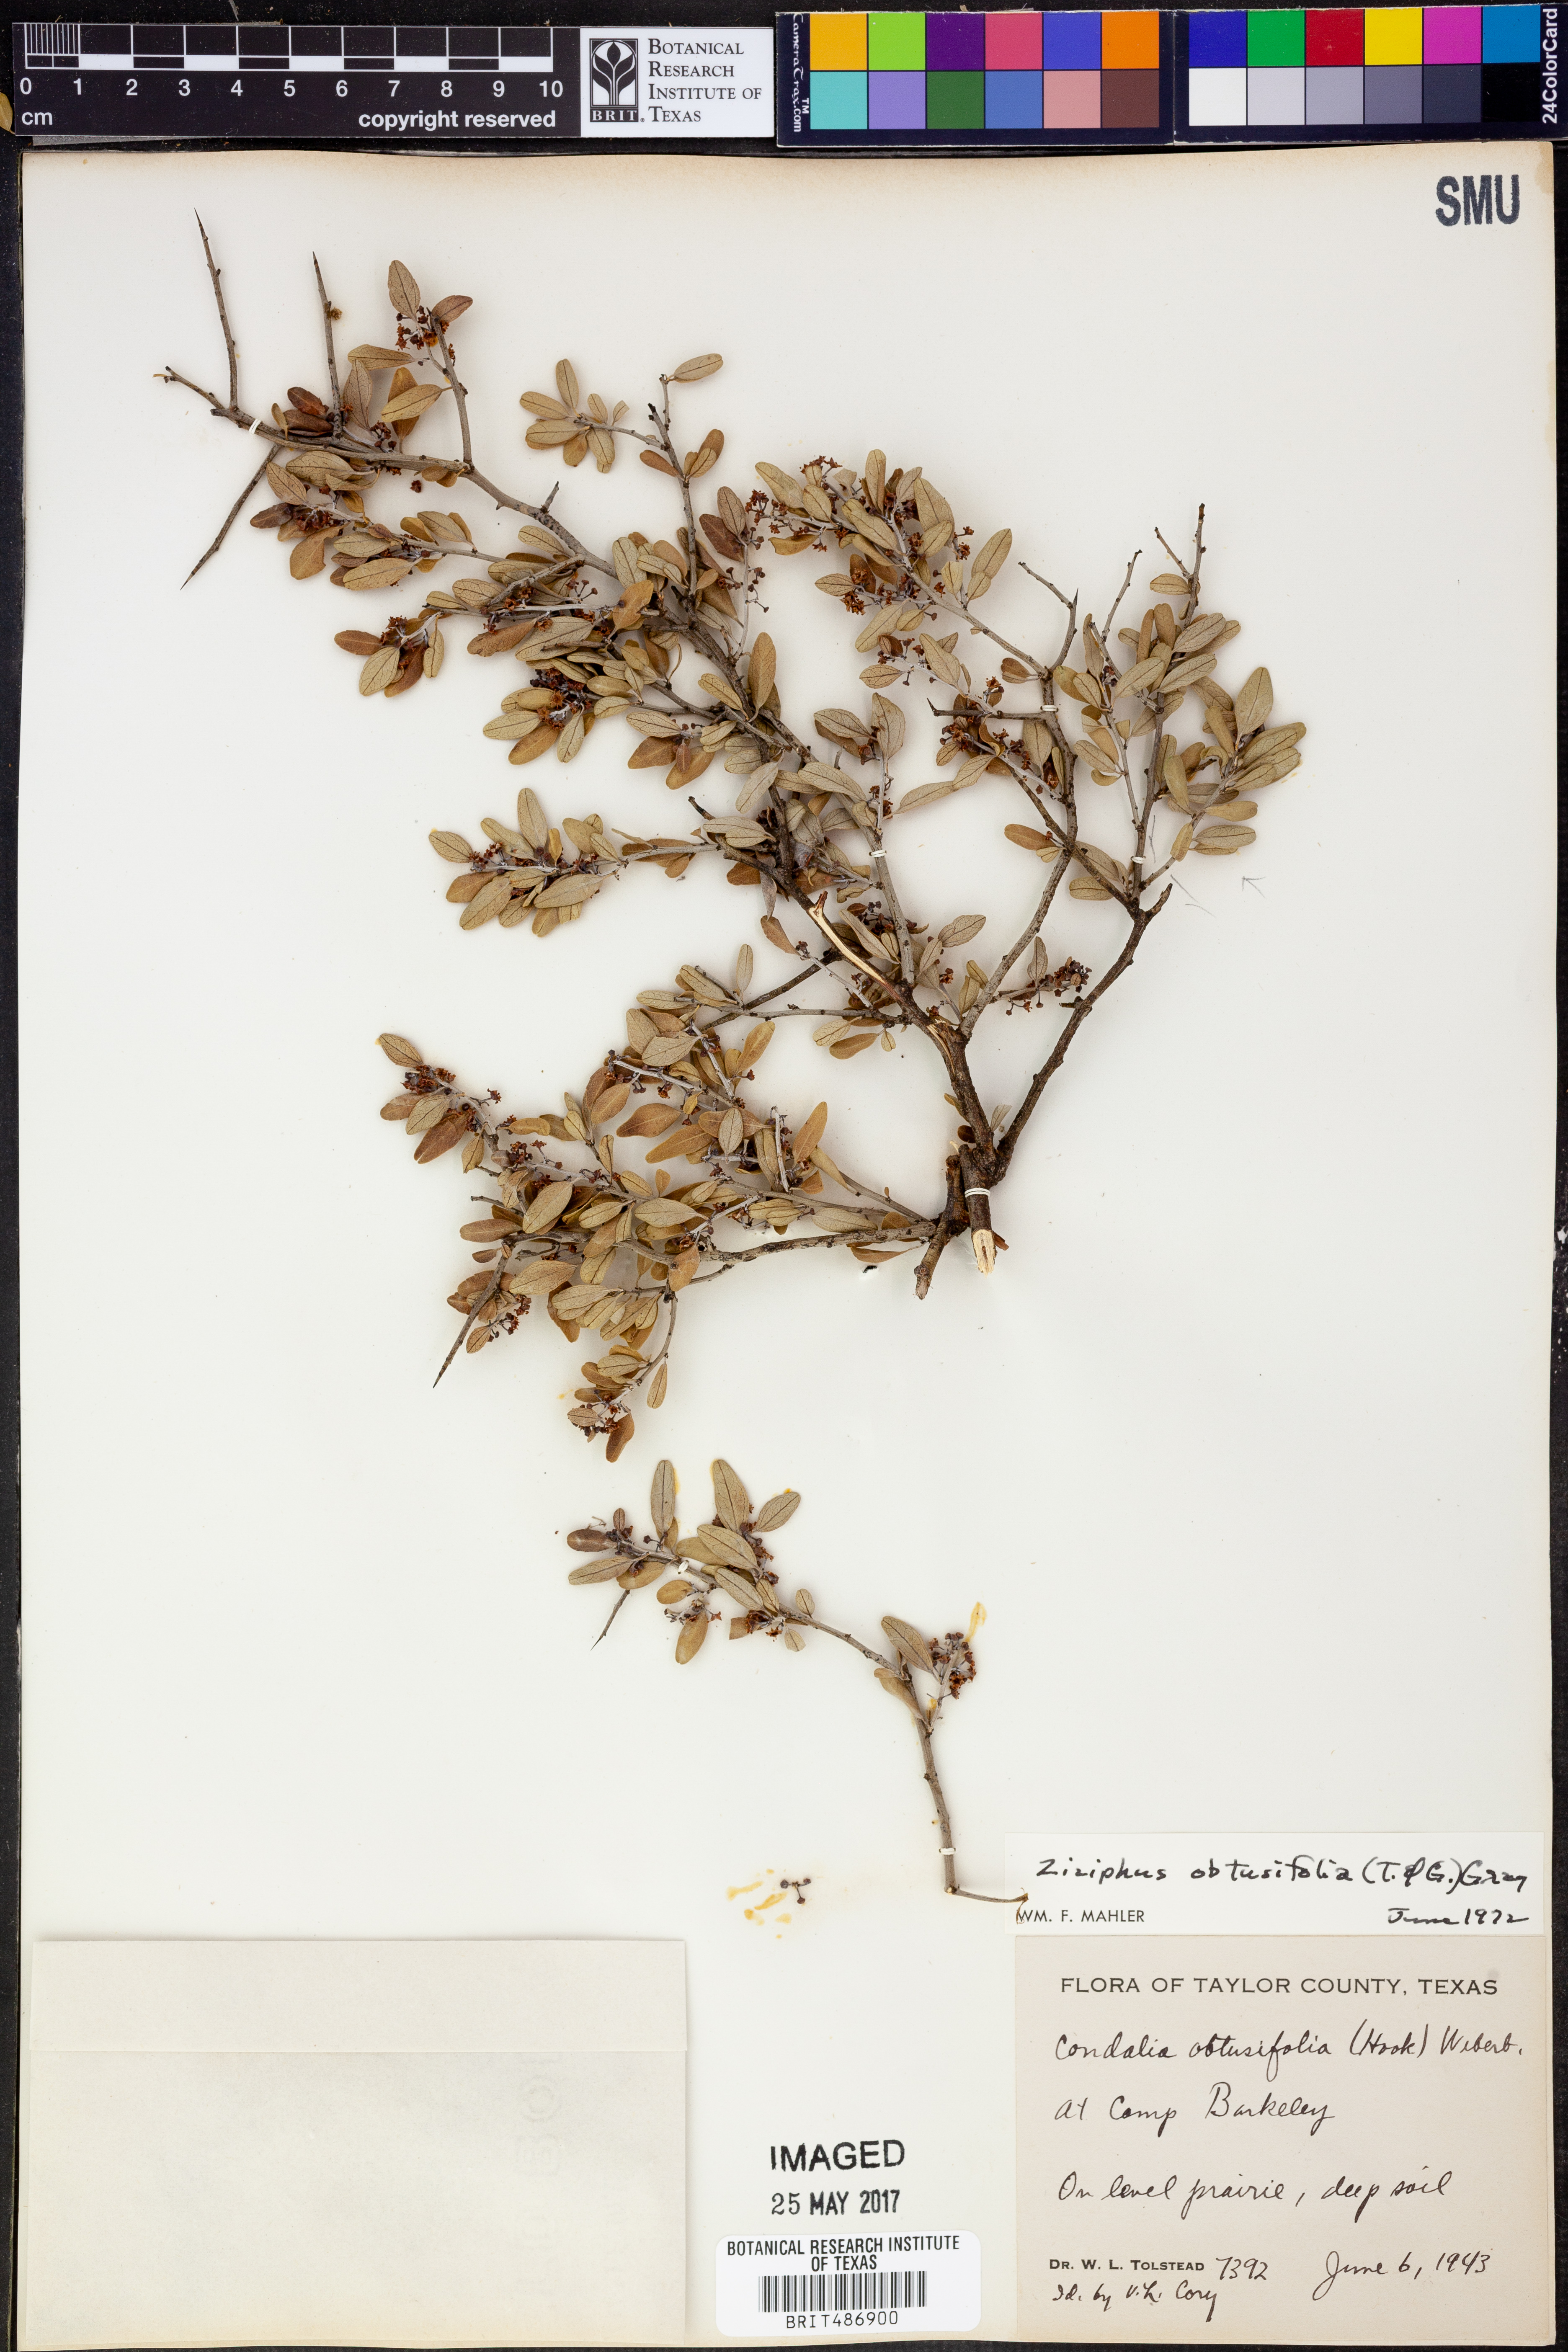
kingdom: Plantae
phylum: Tracheophyta
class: Magnoliopsida
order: Rosales
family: Rhamnaceae
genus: Sarcomphalus
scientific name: Sarcomphalus obtusifolius
